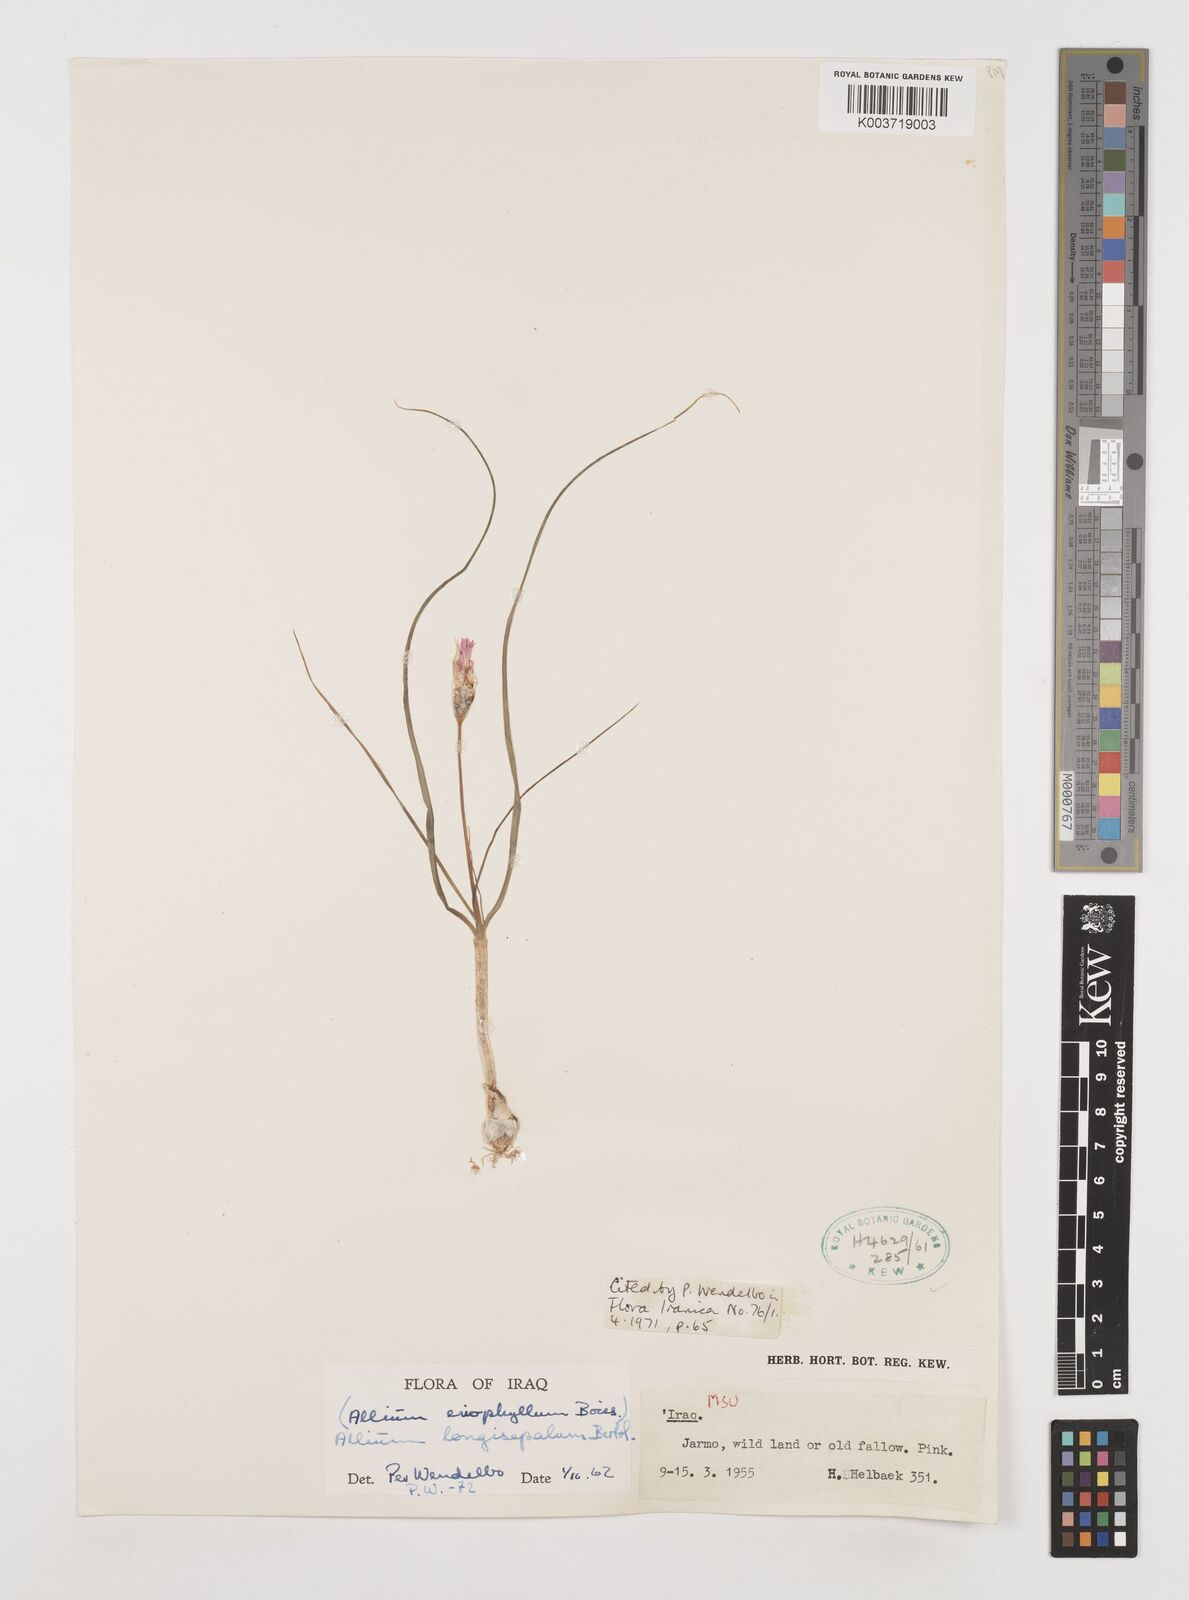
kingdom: Plantae
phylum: Tracheophyta
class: Liliopsida
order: Asparagales
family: Amaryllidaceae
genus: Allium
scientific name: Allium longisepalum
